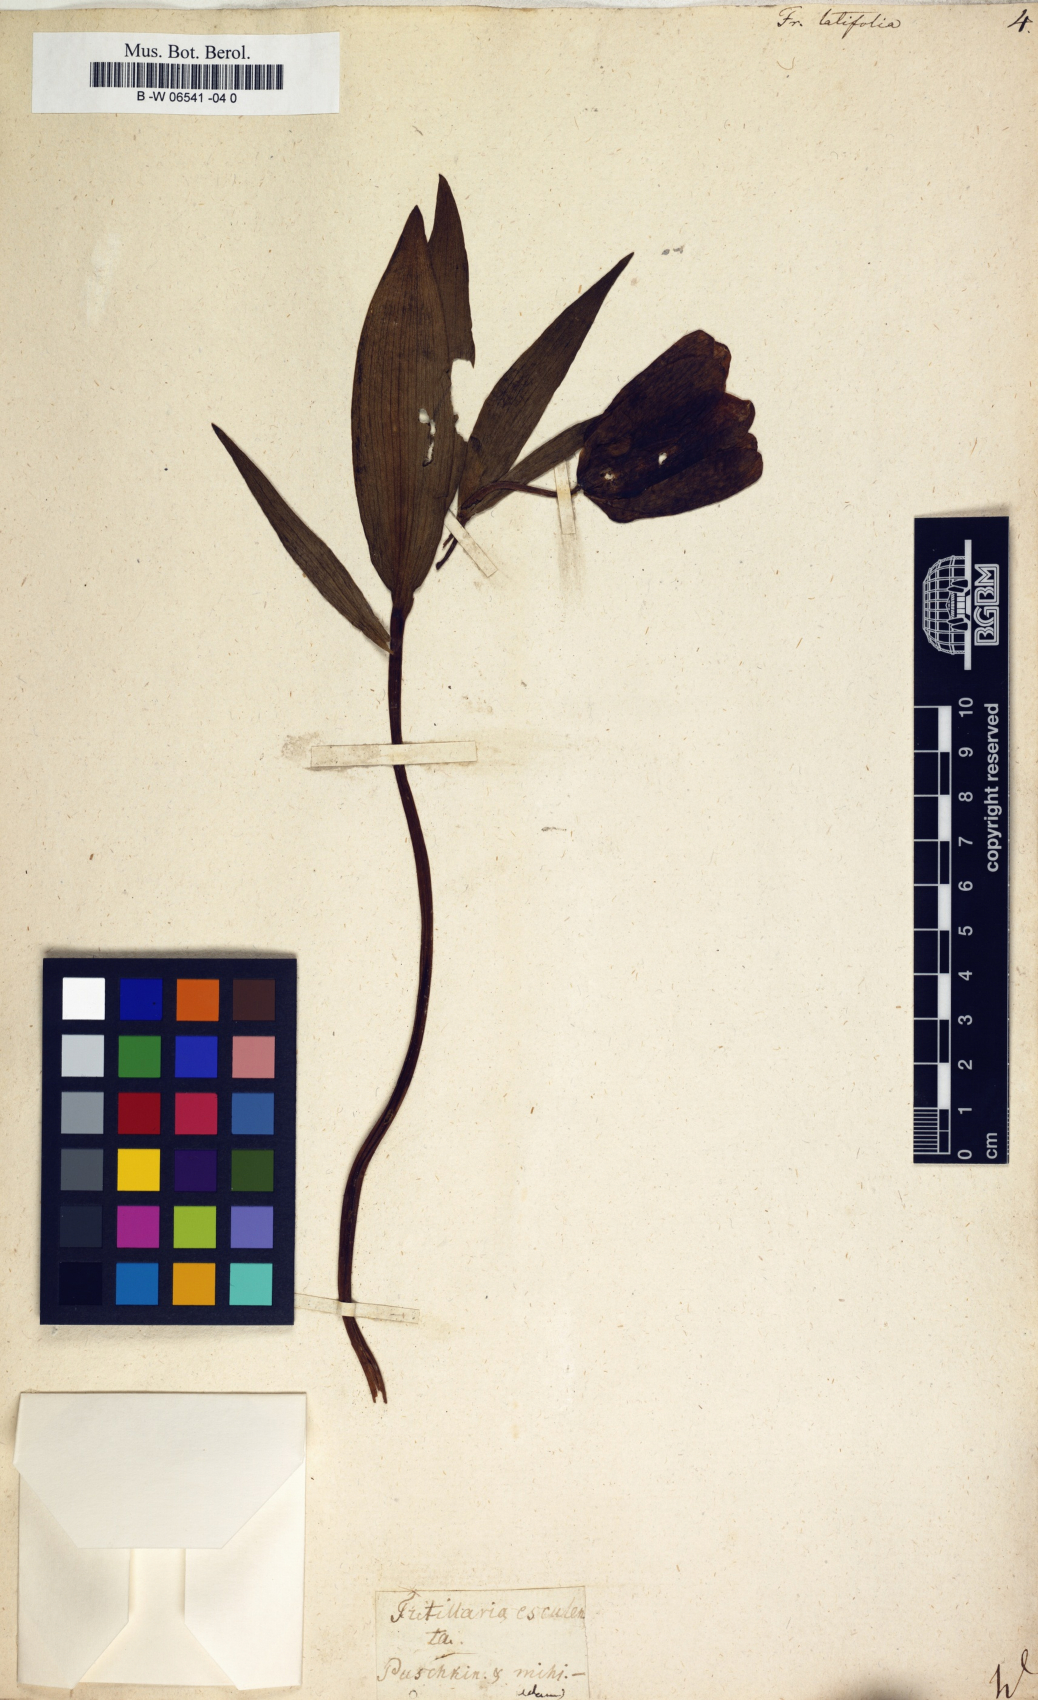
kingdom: Plantae
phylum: Tracheophyta
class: Liliopsida
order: Liliales
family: Liliaceae
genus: Fritillaria
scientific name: Fritillaria latifolia
